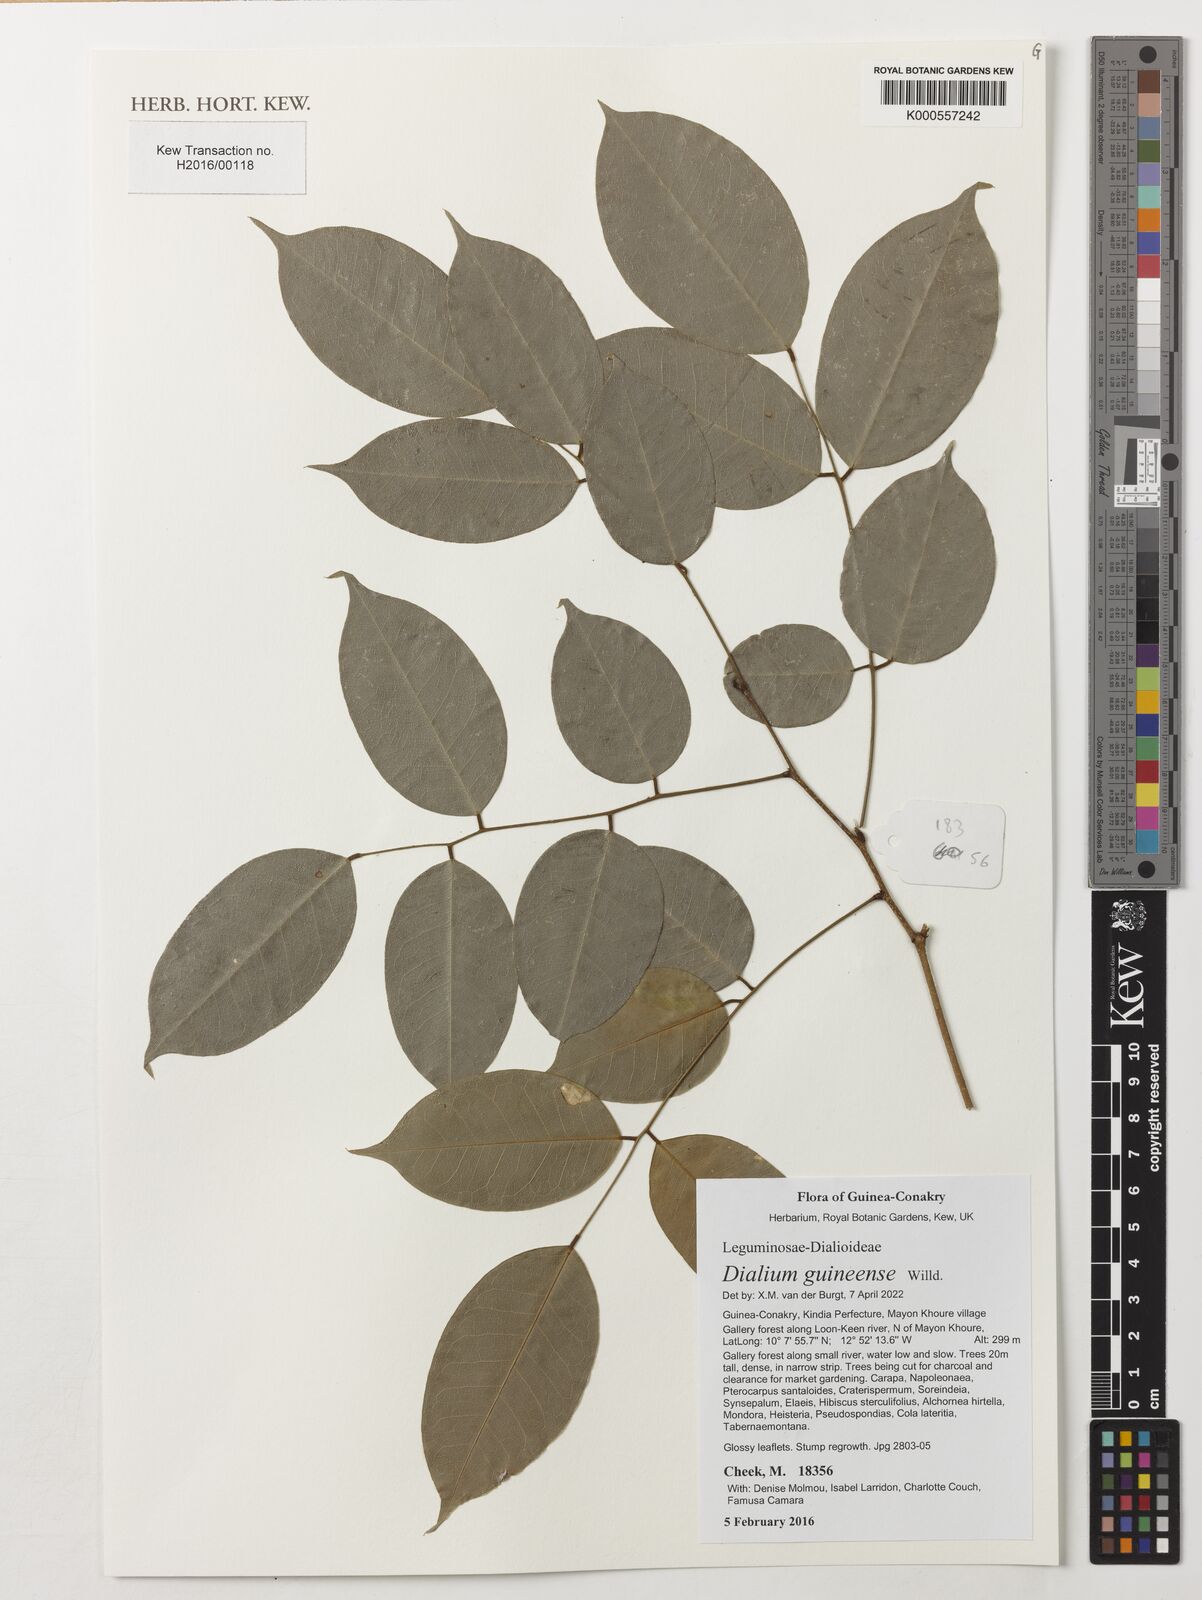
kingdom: Plantae
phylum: Tracheophyta
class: Magnoliopsida
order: Fabales
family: Fabaceae
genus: Dialium
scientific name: Dialium guianense
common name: Ironwood
